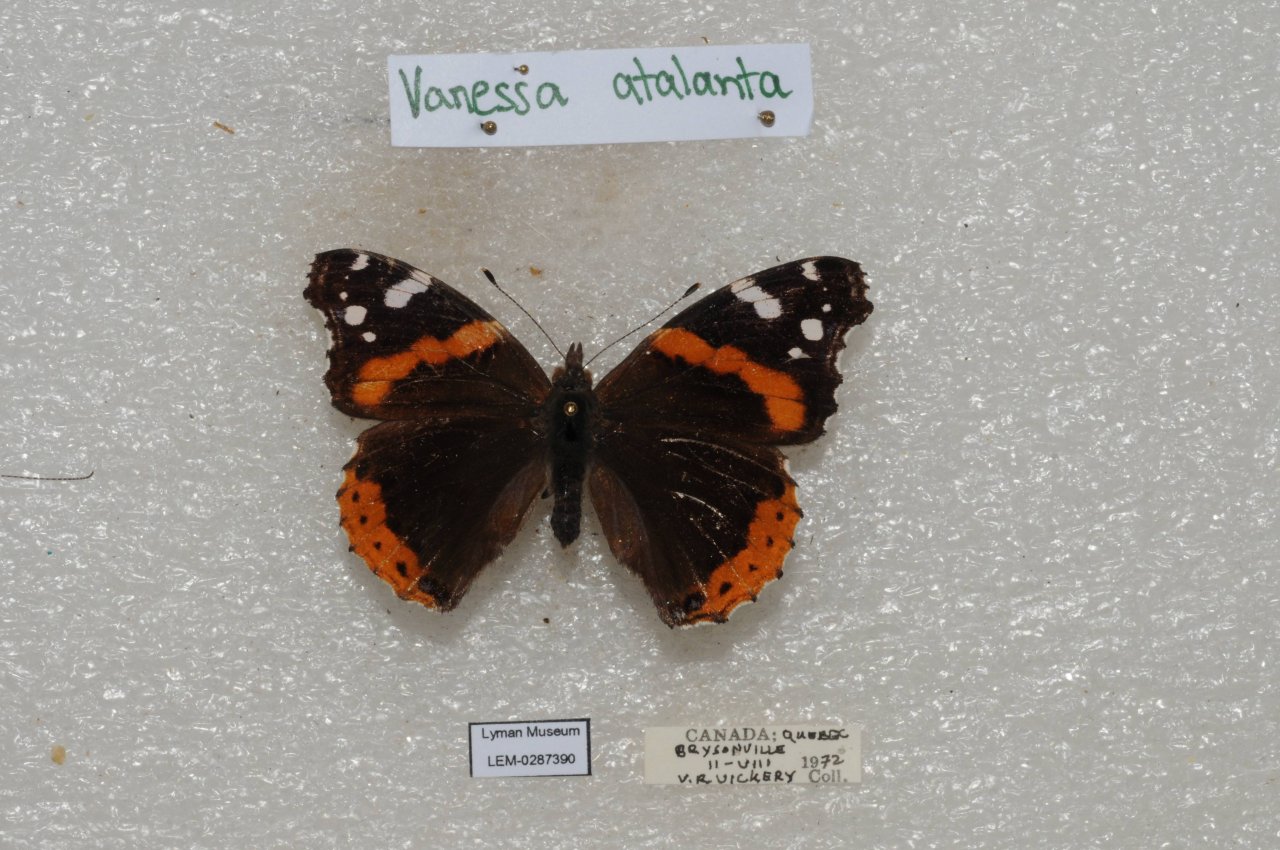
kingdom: Animalia
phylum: Arthropoda
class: Insecta
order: Lepidoptera
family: Nymphalidae
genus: Vanessa
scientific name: Vanessa atalanta
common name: Red Admiral
